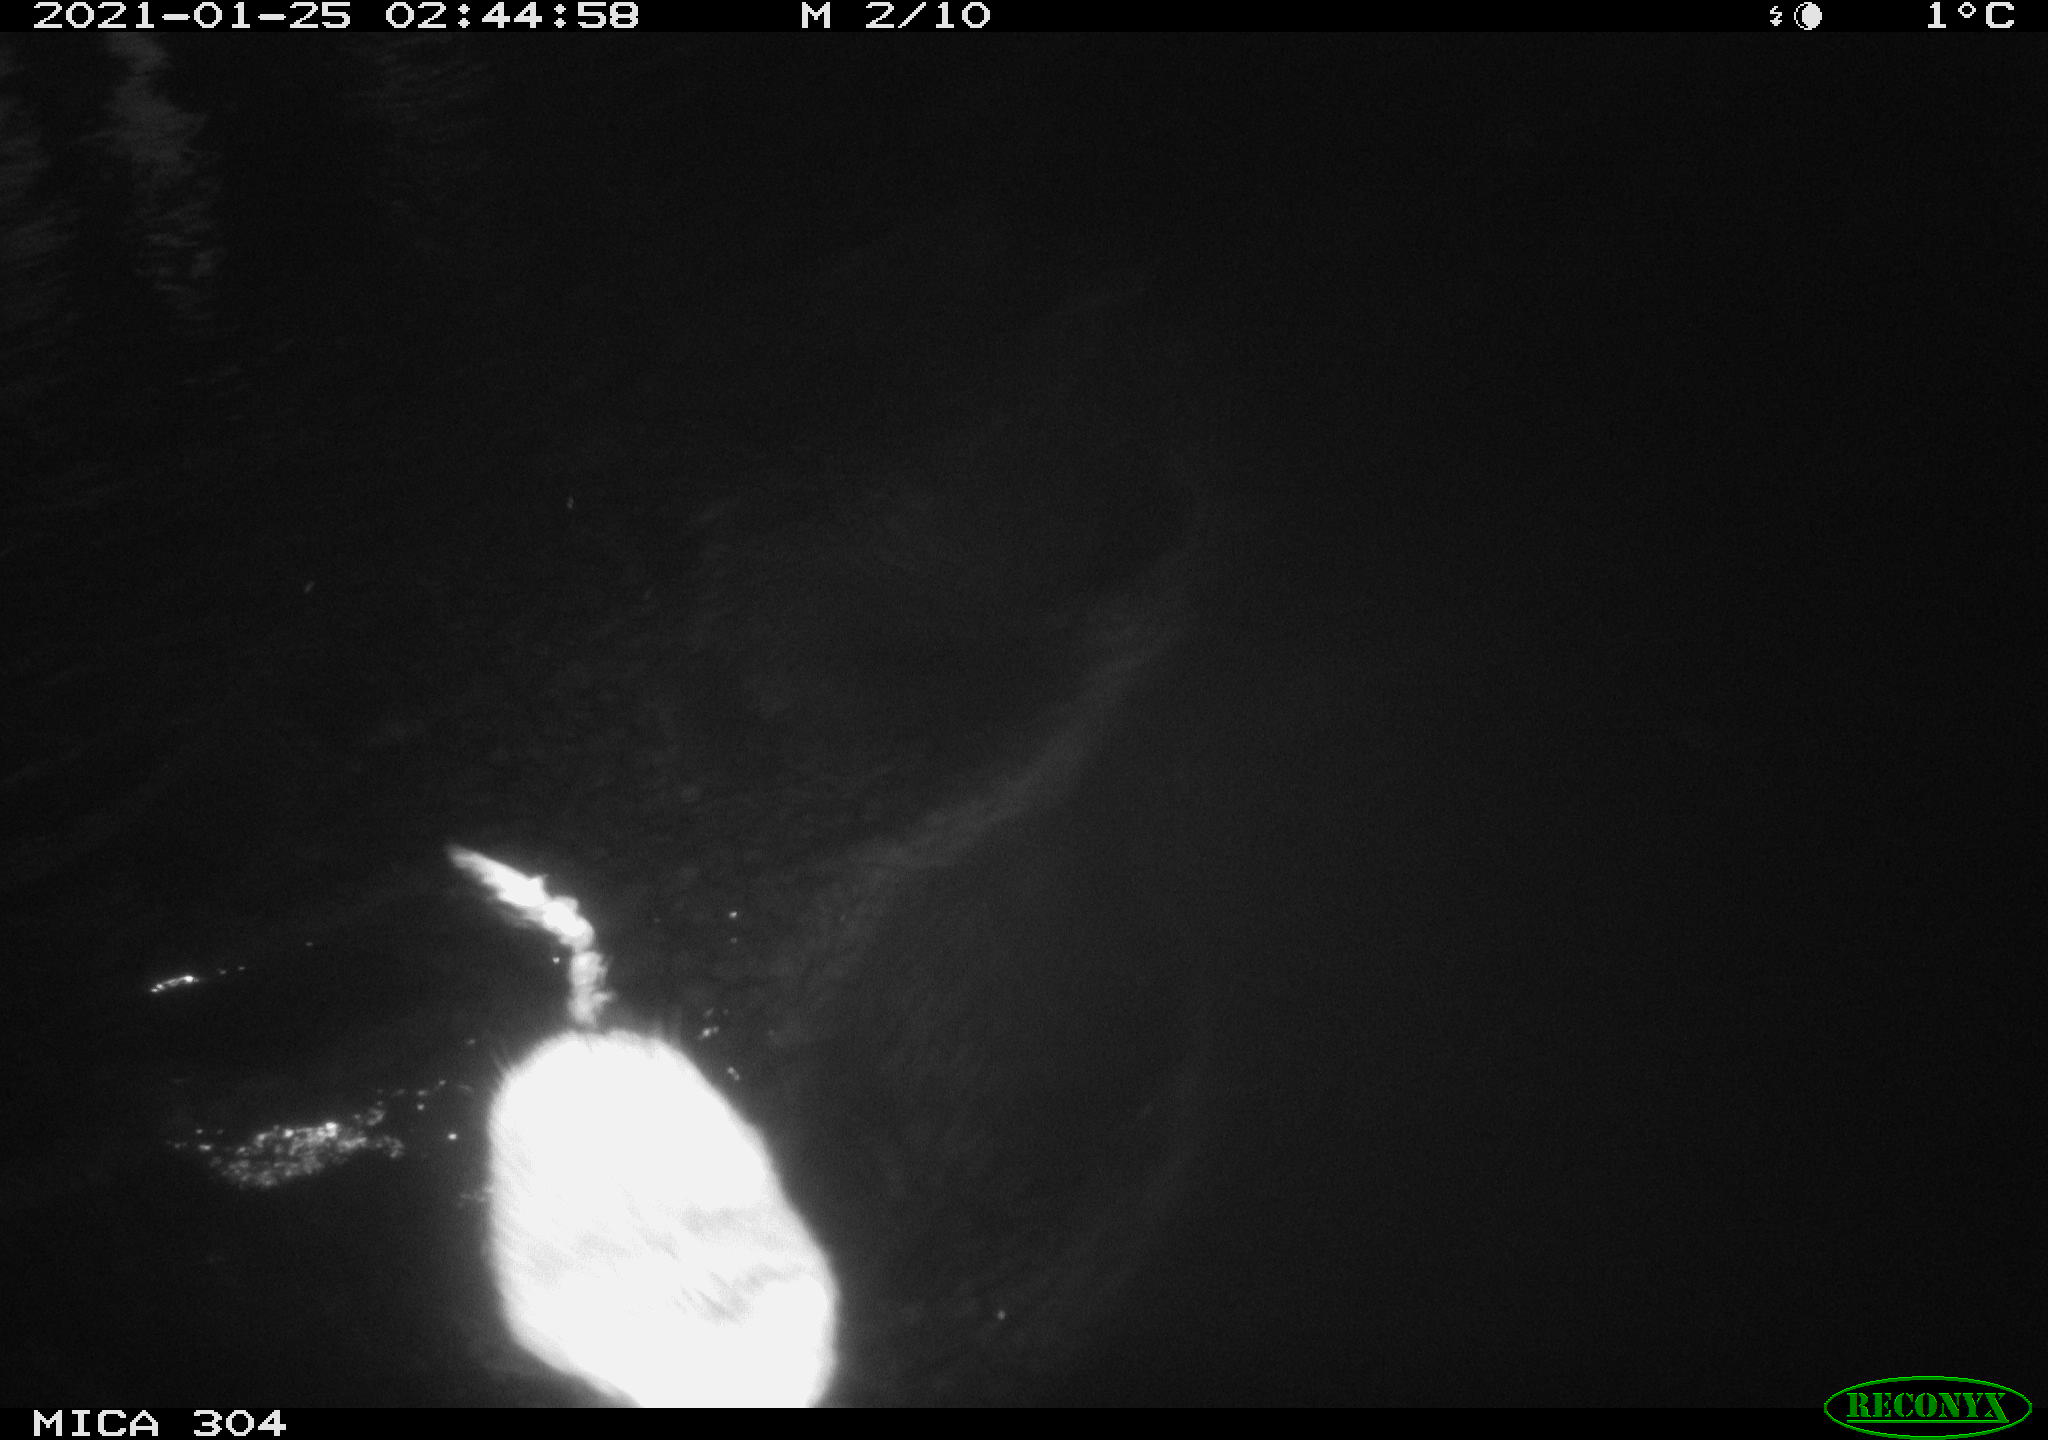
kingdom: Animalia
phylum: Chordata
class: Mammalia
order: Rodentia
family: Cricetidae
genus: Ondatra
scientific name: Ondatra zibethicus
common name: Muskrat
